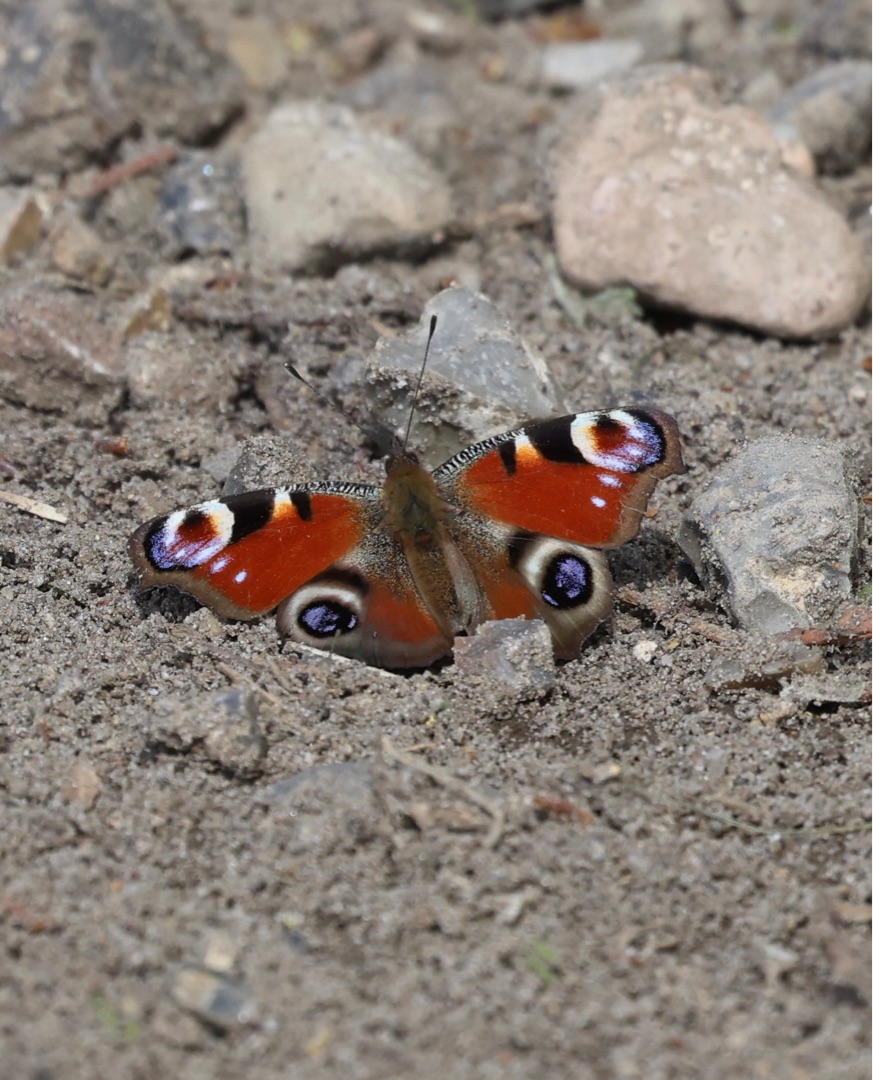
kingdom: Animalia
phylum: Arthropoda
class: Insecta
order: Lepidoptera
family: Nymphalidae
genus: Aglais
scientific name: Aglais io
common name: Dagpåfugleøje
